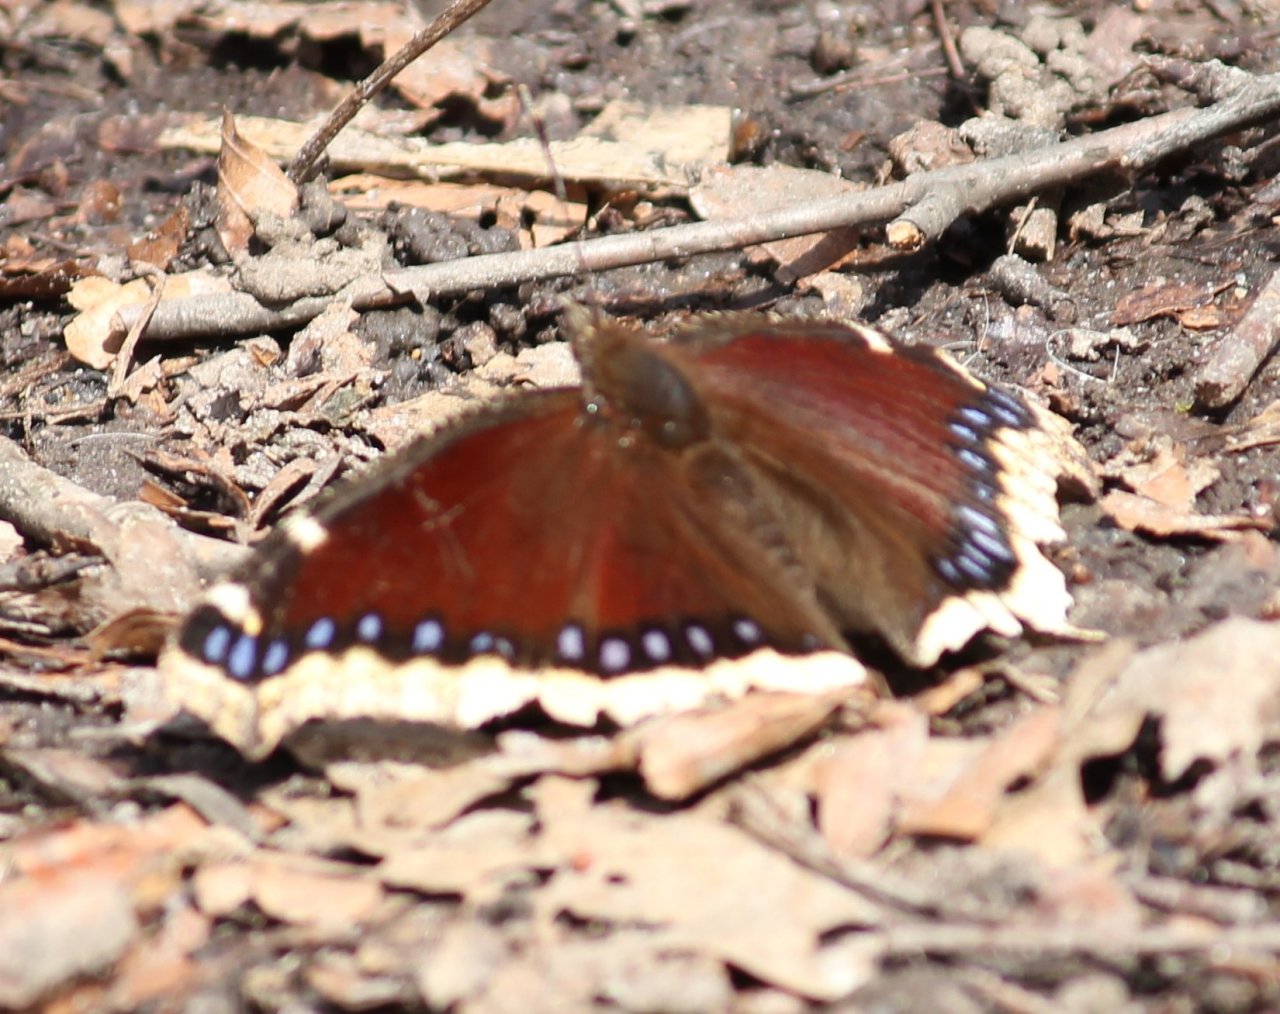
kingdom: Animalia
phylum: Arthropoda
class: Insecta
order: Lepidoptera
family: Nymphalidae
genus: Nymphalis
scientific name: Nymphalis antiopa
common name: Mourning Cloak
